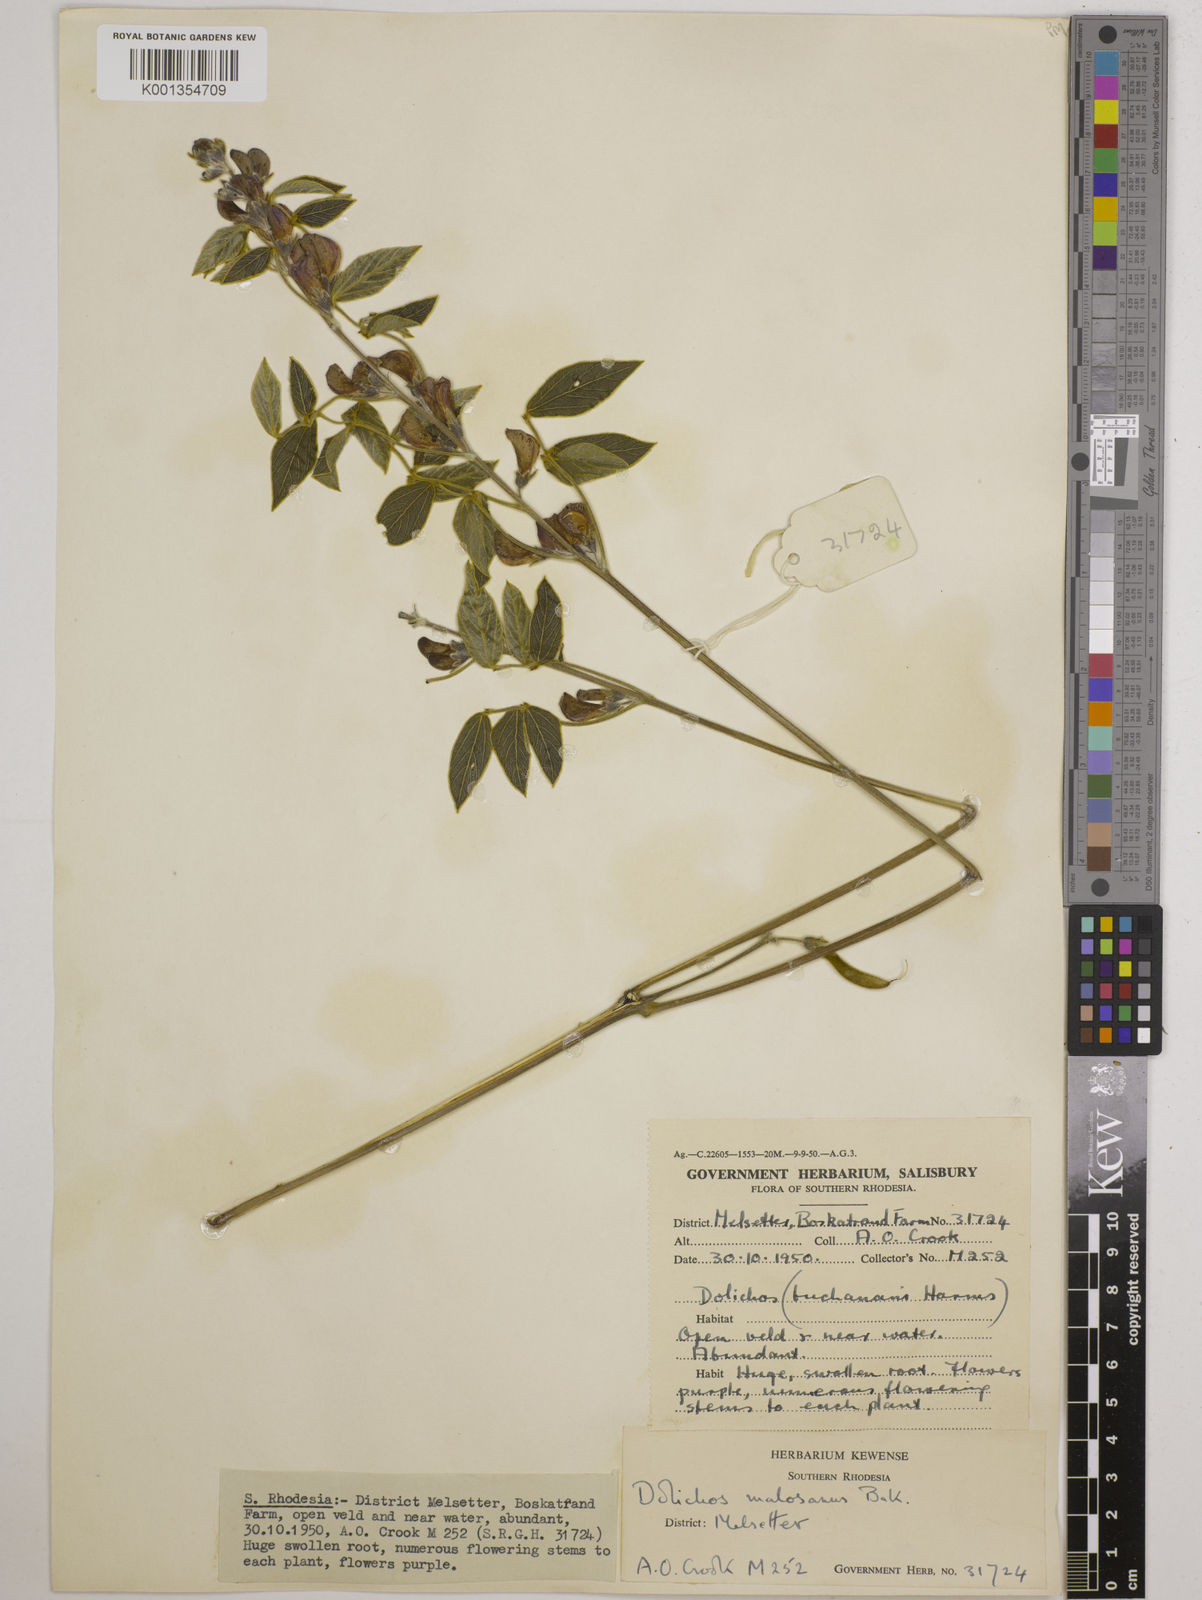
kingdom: Plantae
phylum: Tracheophyta
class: Magnoliopsida
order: Fabales
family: Fabaceae
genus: Dolichos
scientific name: Dolichos kilimandscharicus
